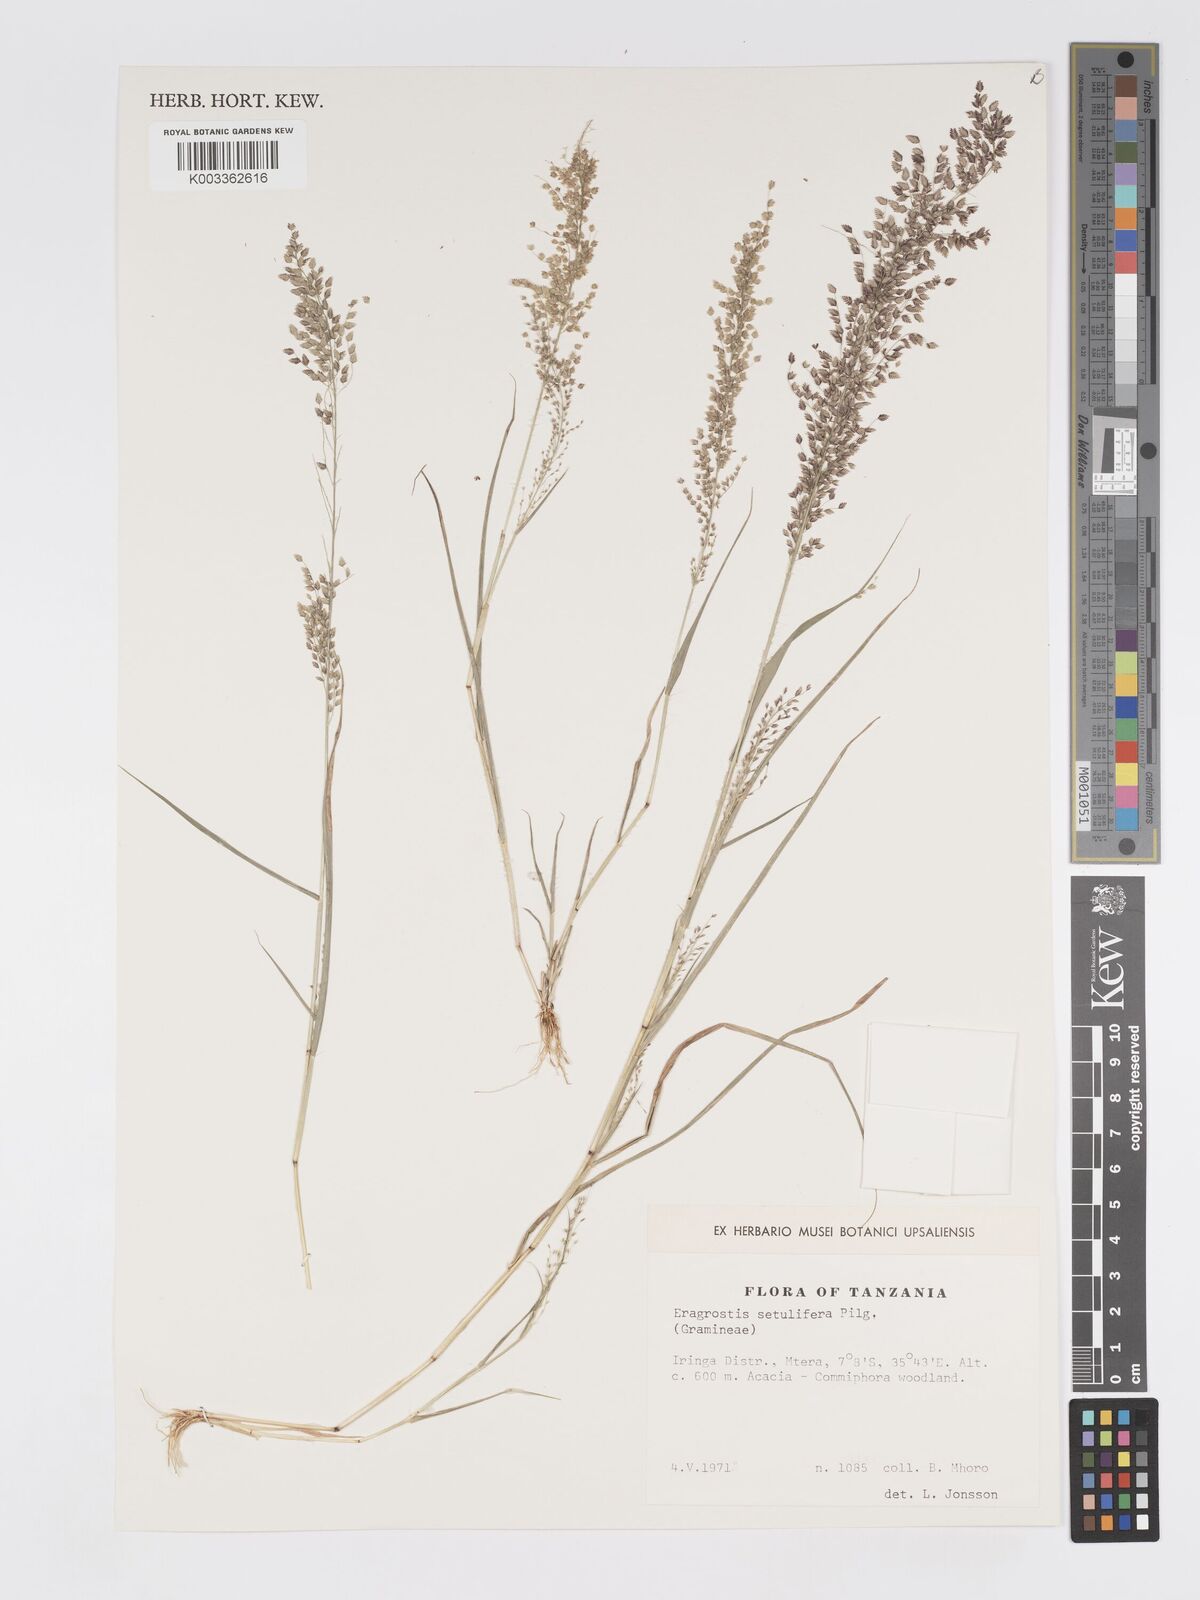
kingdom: Plantae
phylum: Tracheophyta
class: Liliopsida
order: Poales
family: Poaceae
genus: Eragrostis
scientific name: Eragrostis setulifera
